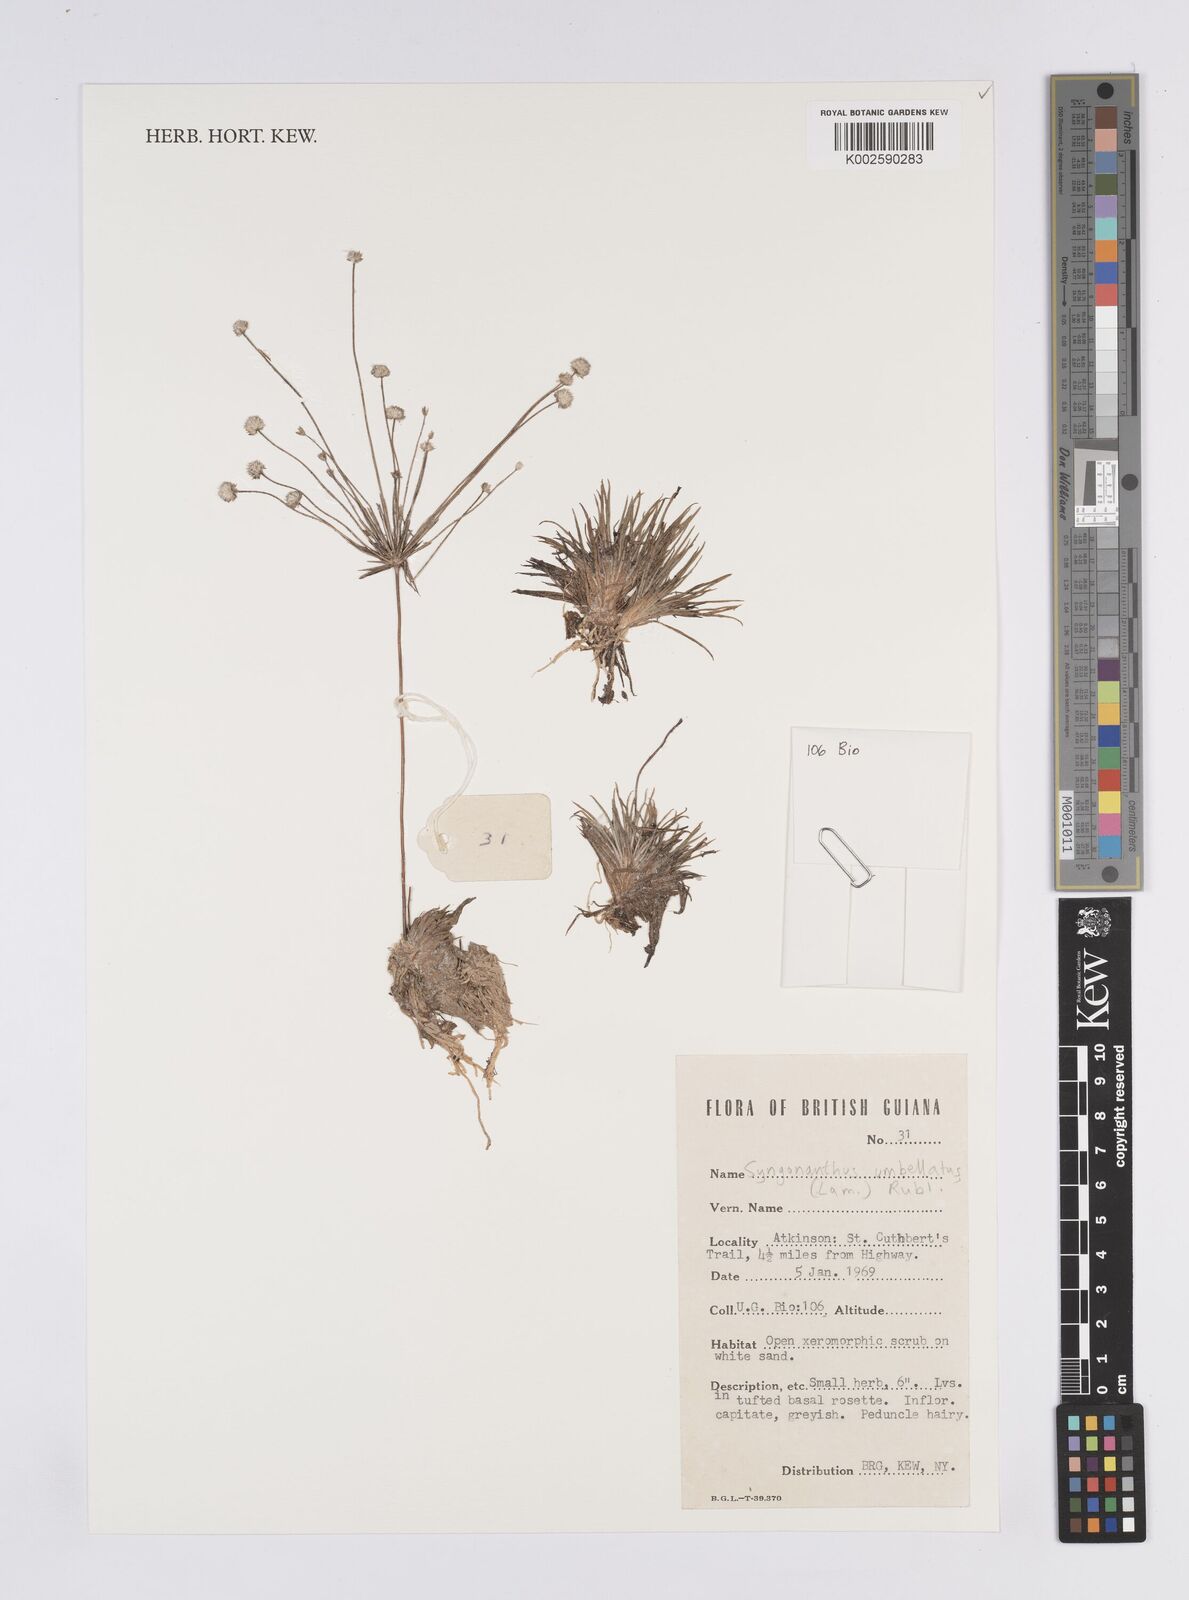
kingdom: Plantae
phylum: Tracheophyta
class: Liliopsida
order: Poales
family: Eriocaulaceae
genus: Syngonanthus
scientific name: Syngonanthus umbellatus
